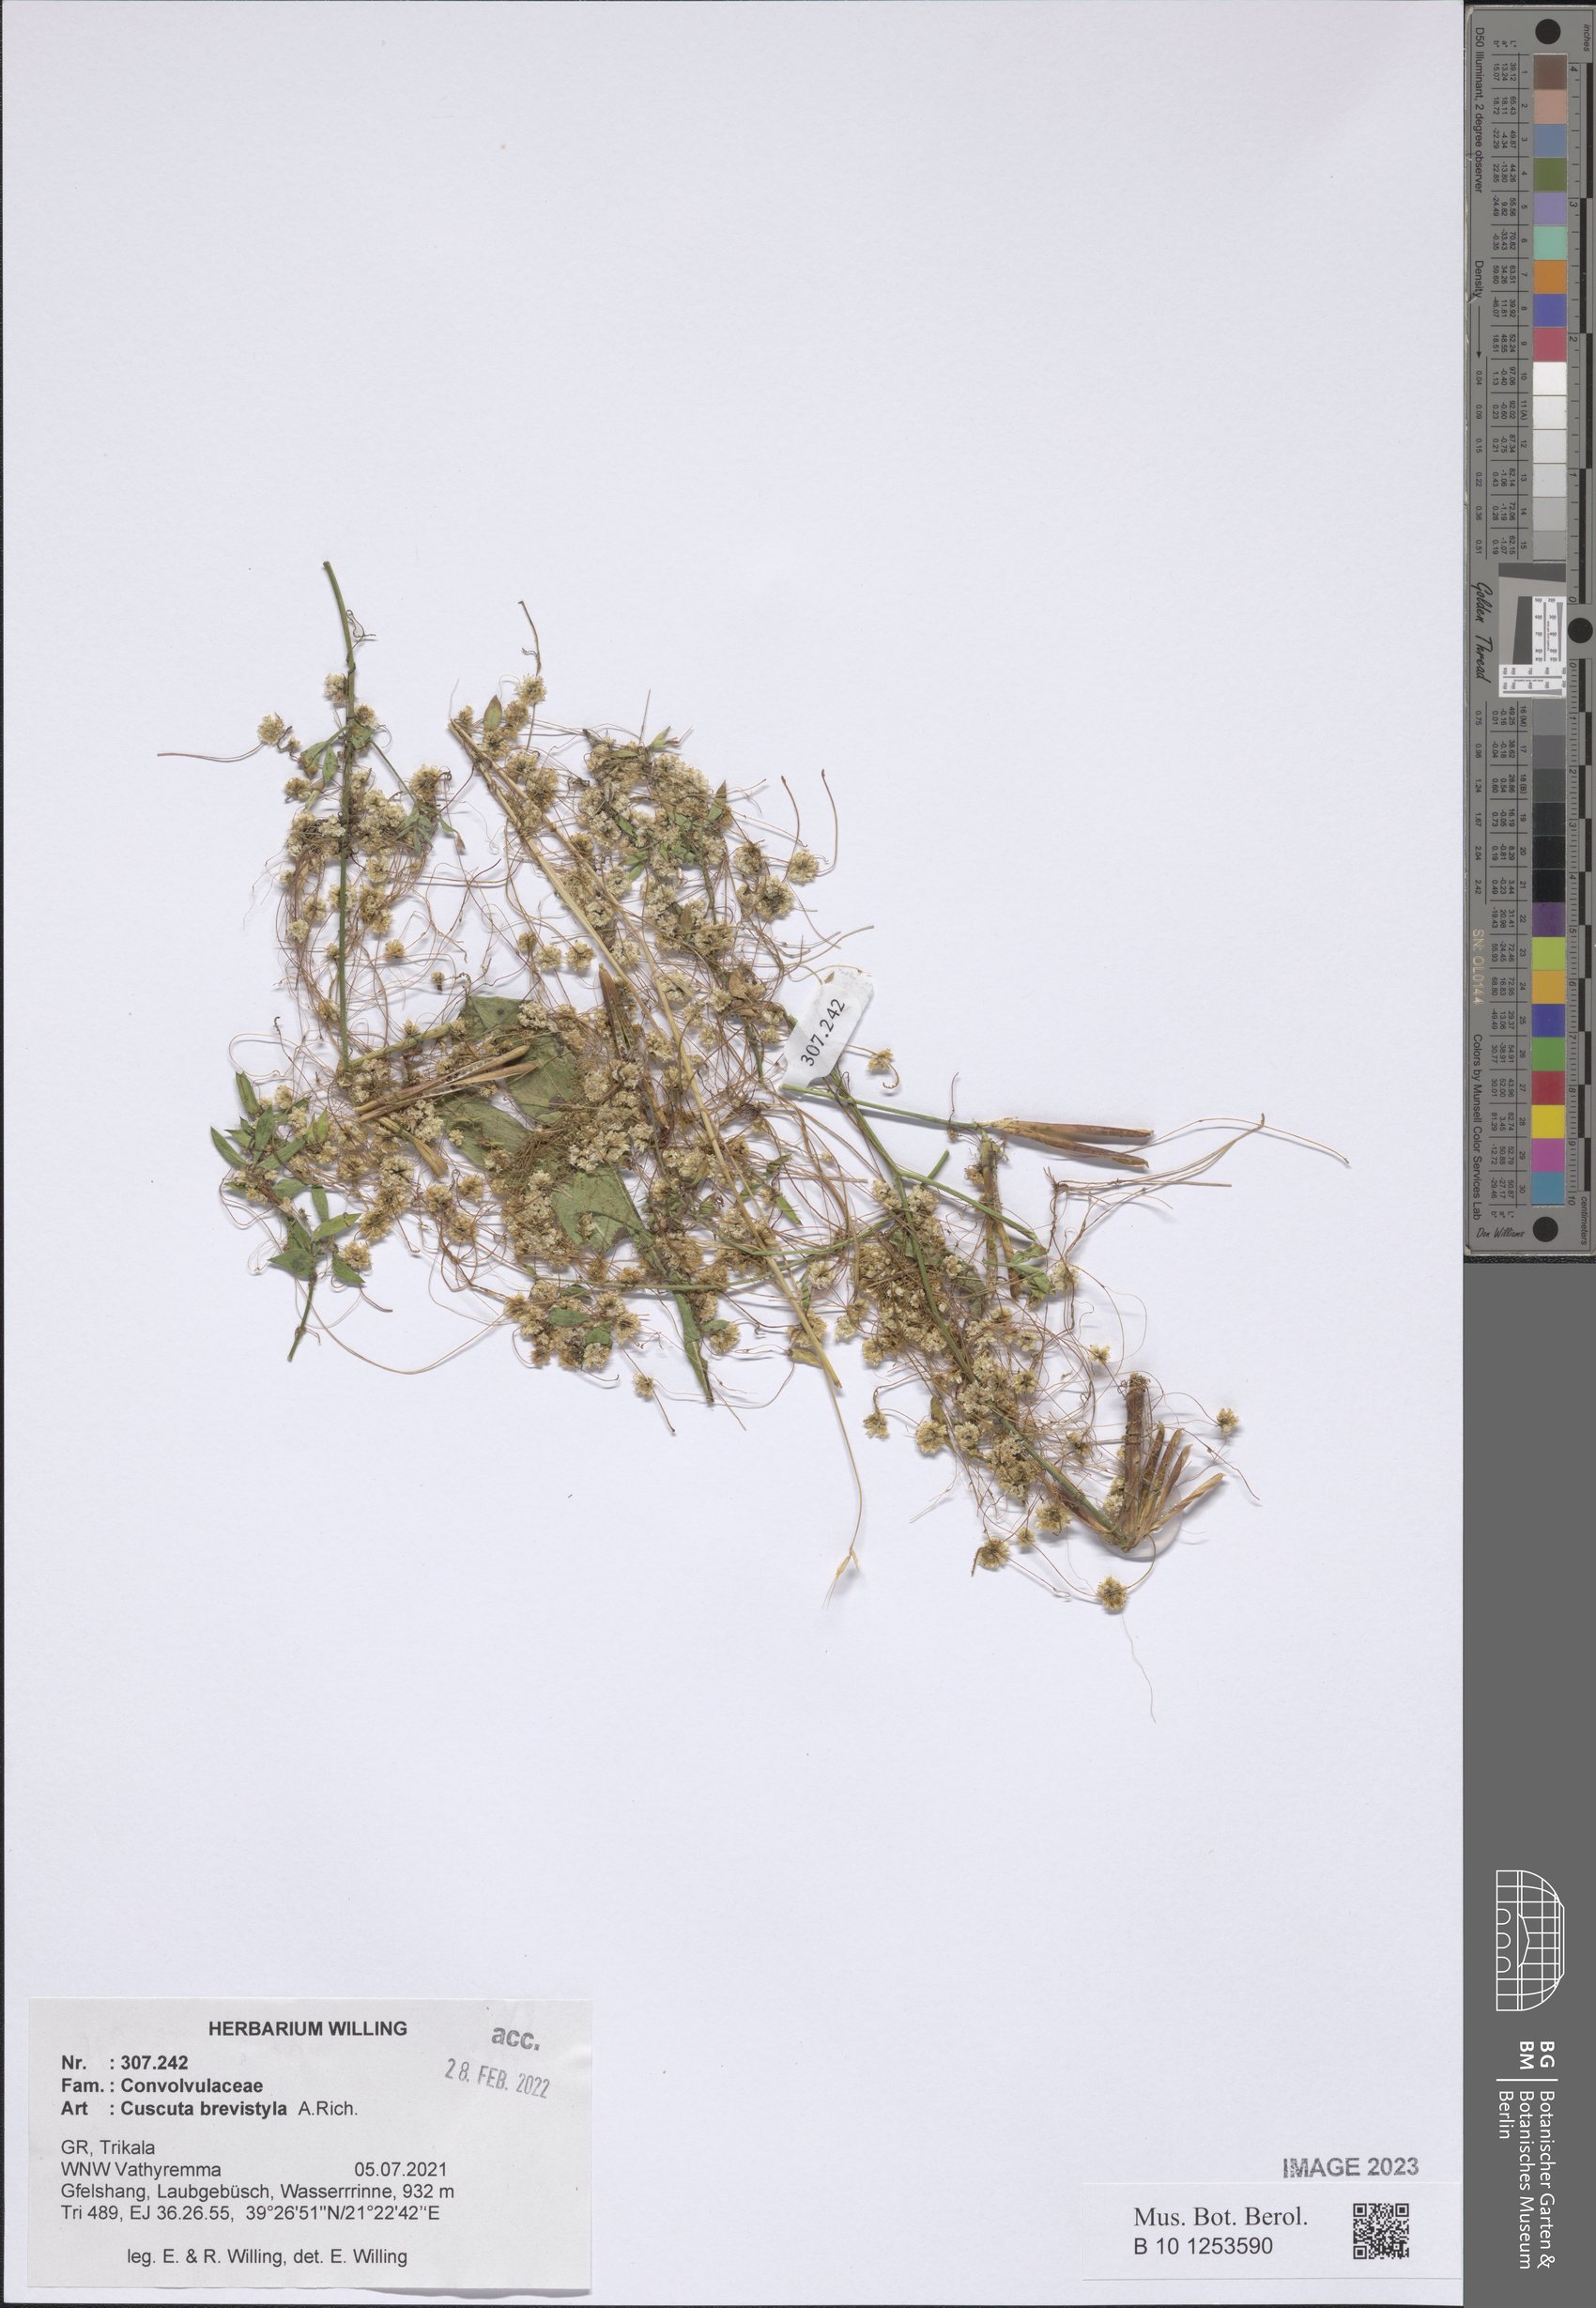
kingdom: Plantae
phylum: Tracheophyta
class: Magnoliopsida
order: Solanales
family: Convolvulaceae
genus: Cuscuta
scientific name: Cuscuta brevistyla
